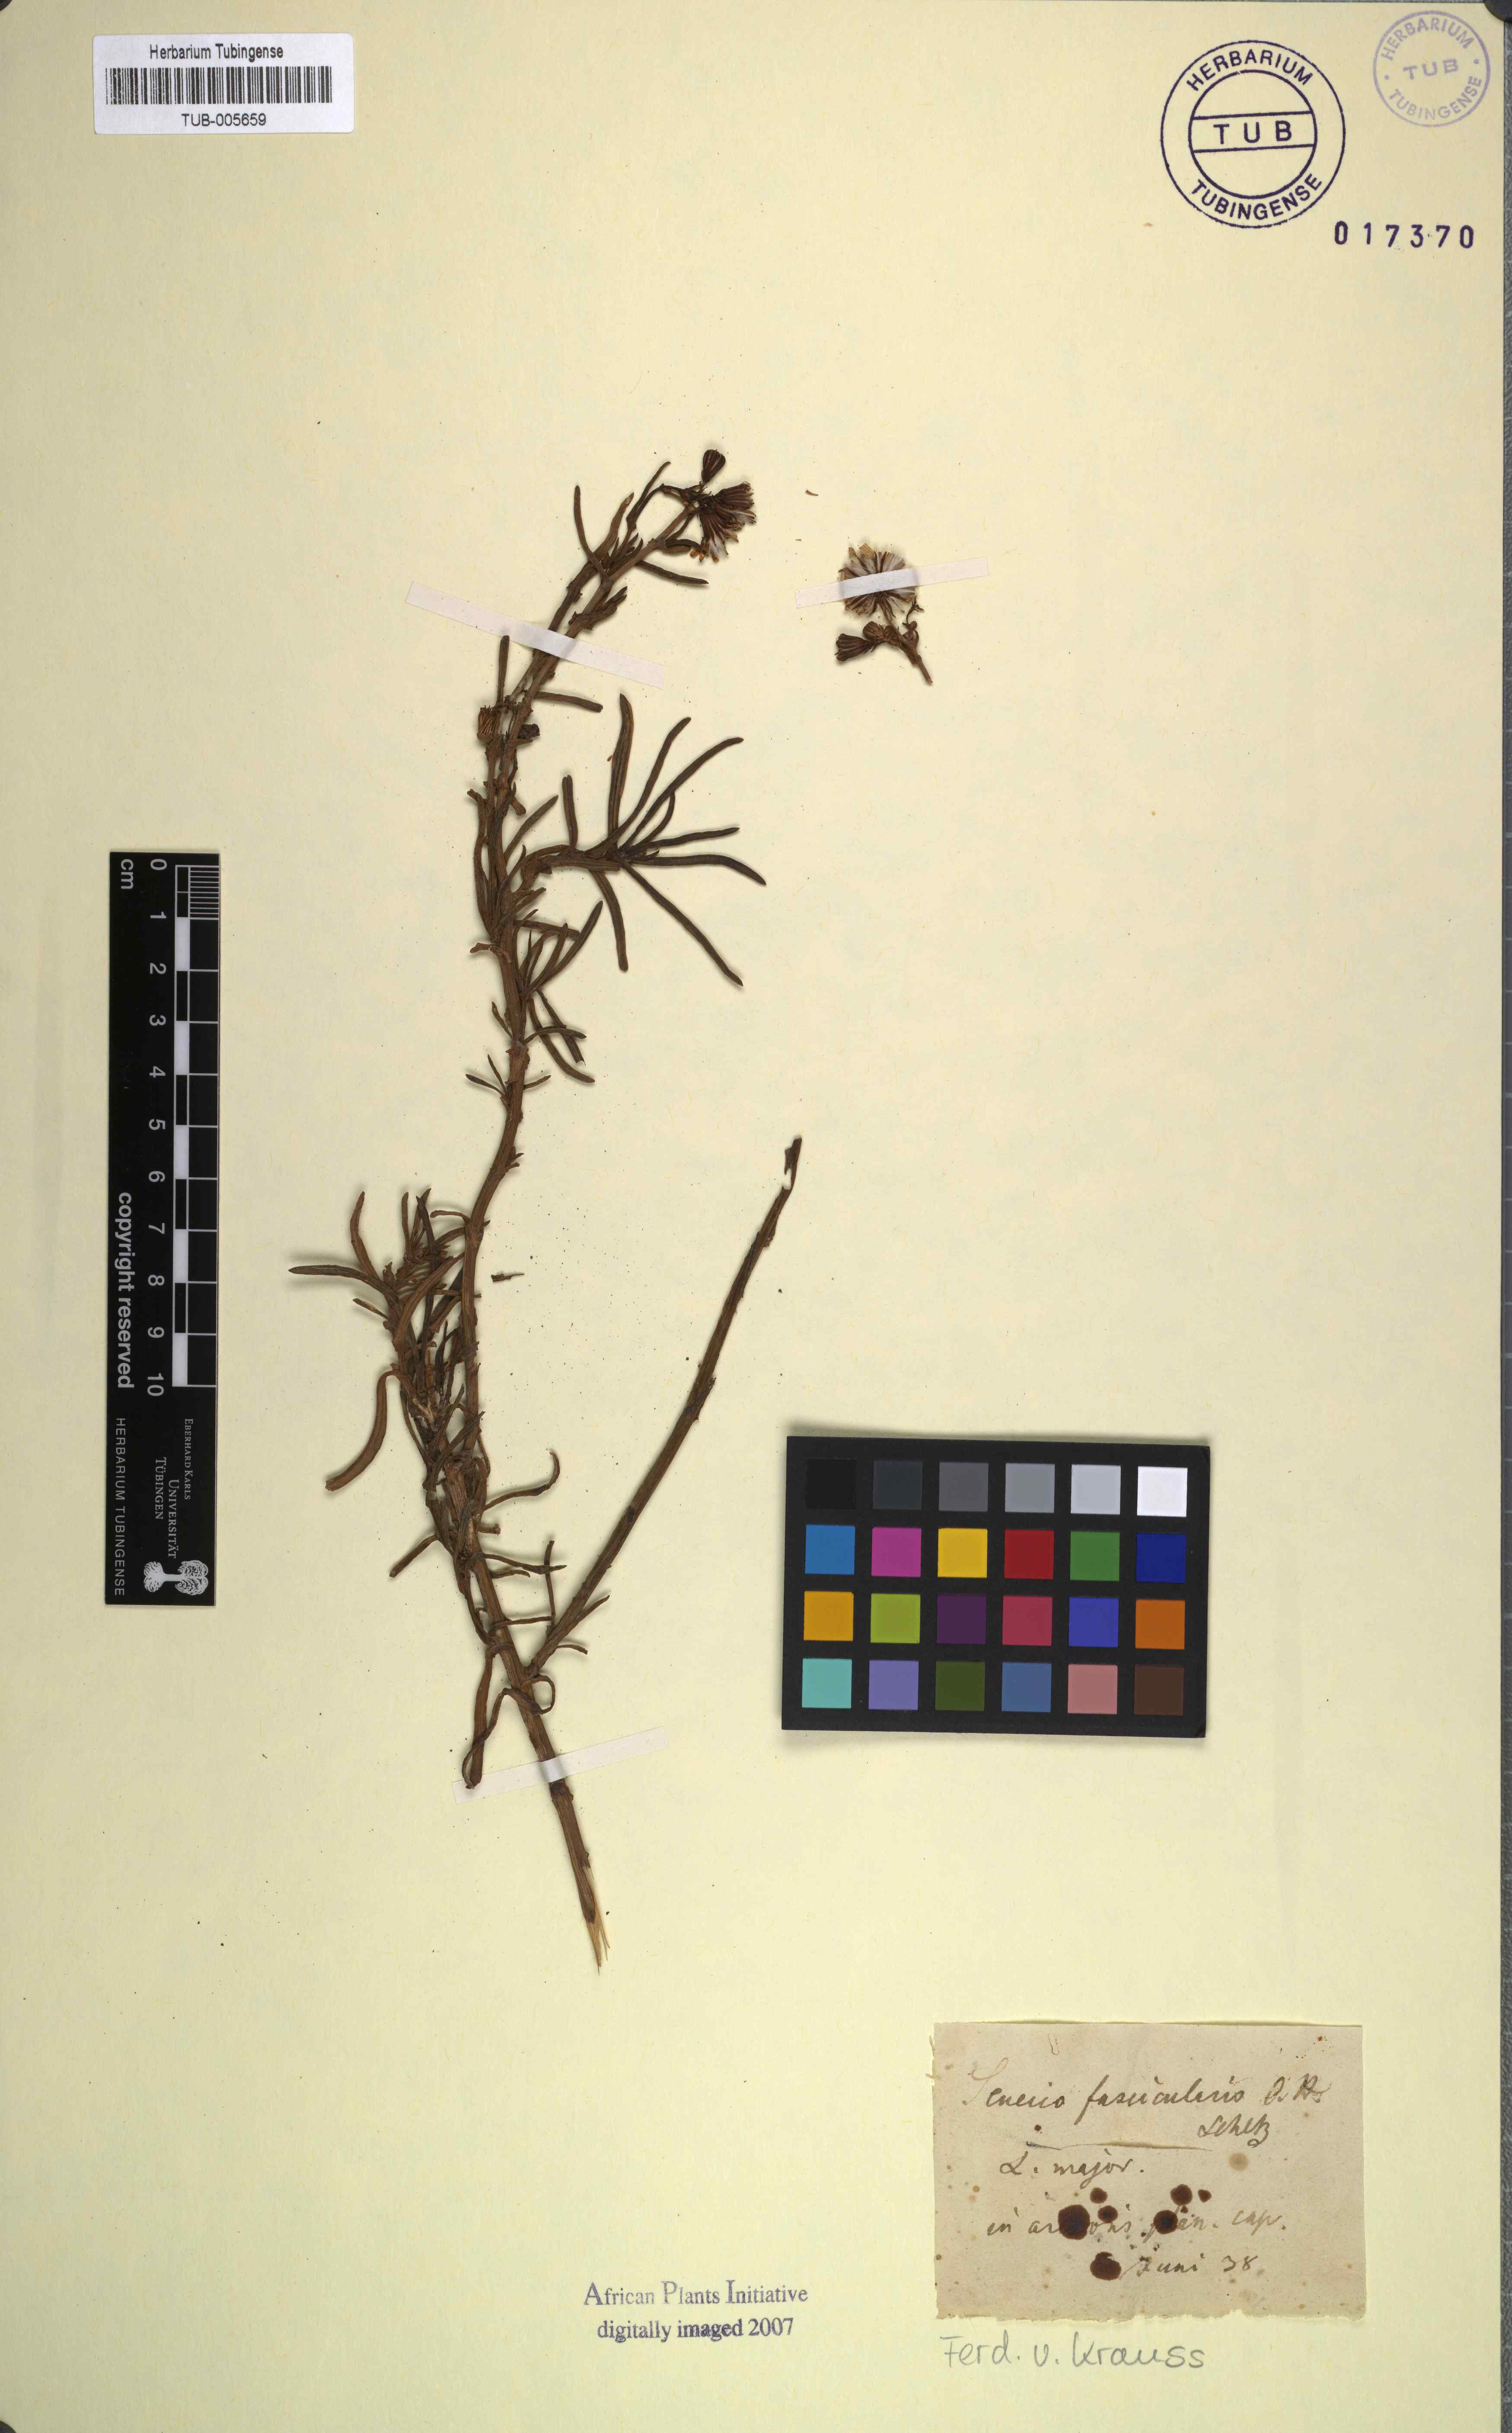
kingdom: Plantae
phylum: Tracheophyta
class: Magnoliopsida
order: Asterales
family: Asteraceae
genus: Senecio
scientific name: Senecio
